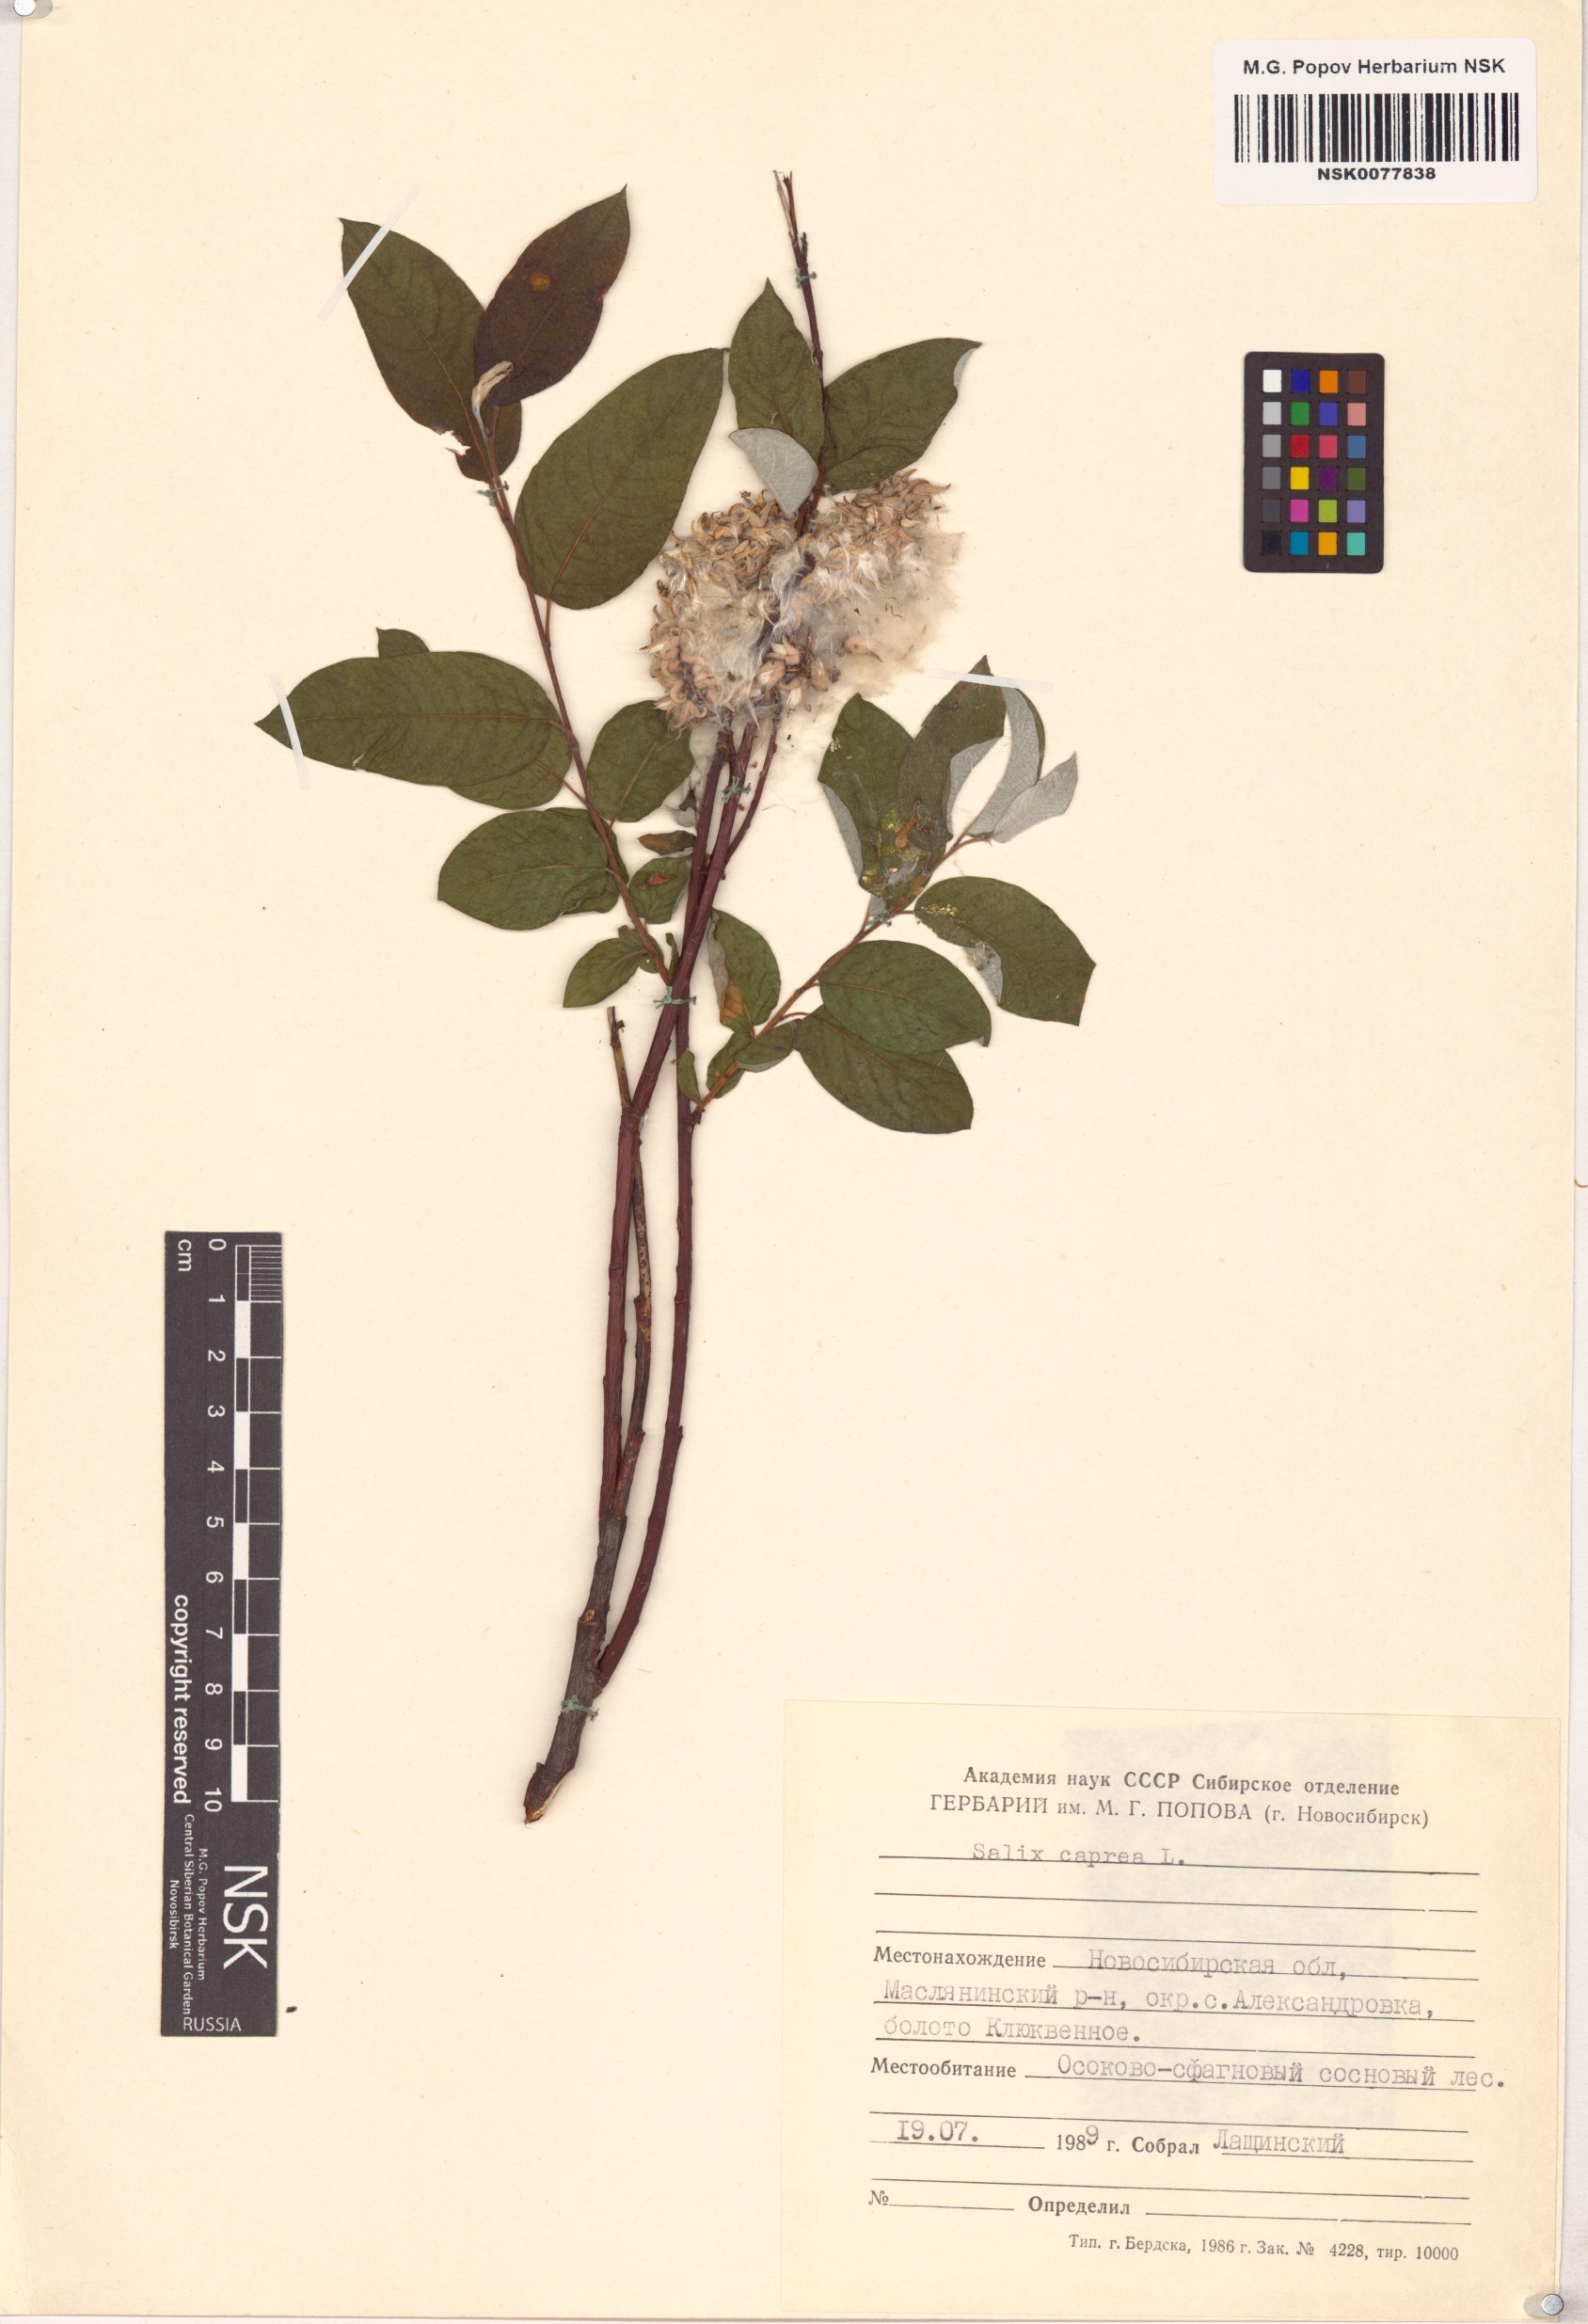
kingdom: Plantae
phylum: Tracheophyta
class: Magnoliopsida
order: Malpighiales
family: Salicaceae
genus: Salix
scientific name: Salix caprea
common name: Goat willow
